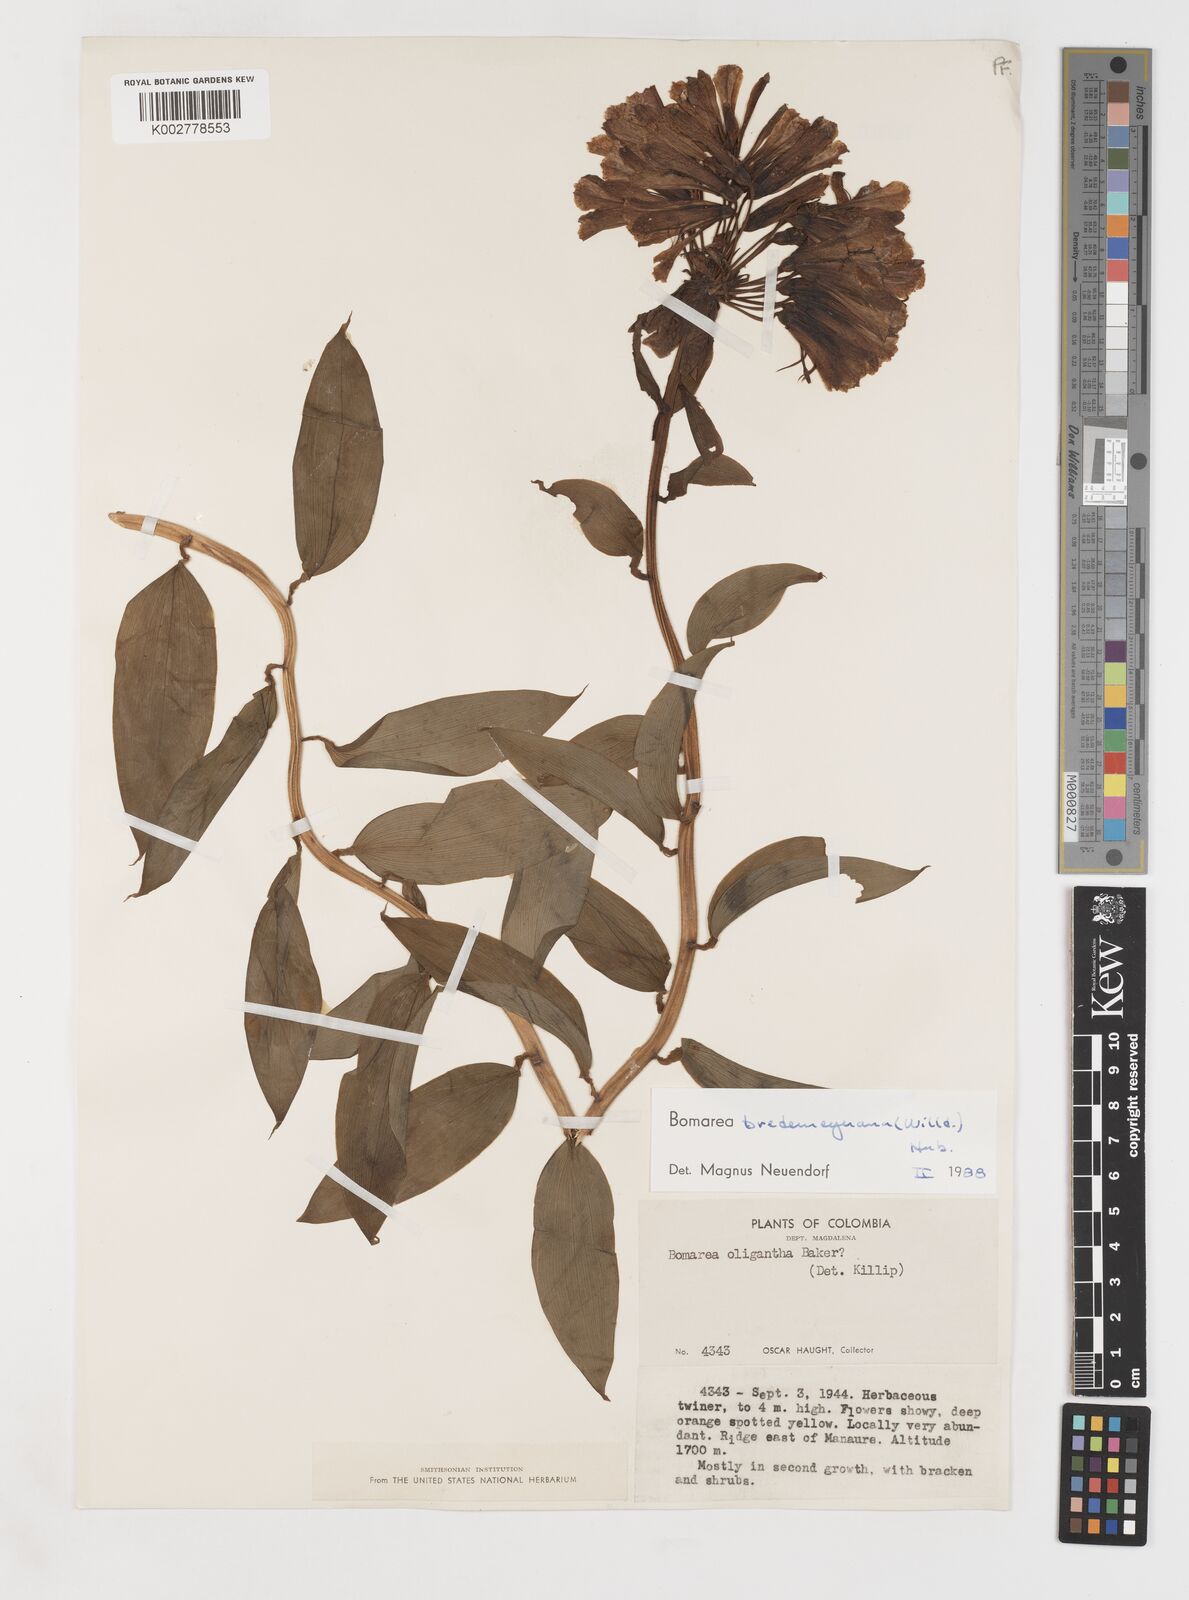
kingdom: Plantae
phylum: Tracheophyta
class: Liliopsida
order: Liliales
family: Alstroemeriaceae
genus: Bomarea
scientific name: Bomarea multiflora
